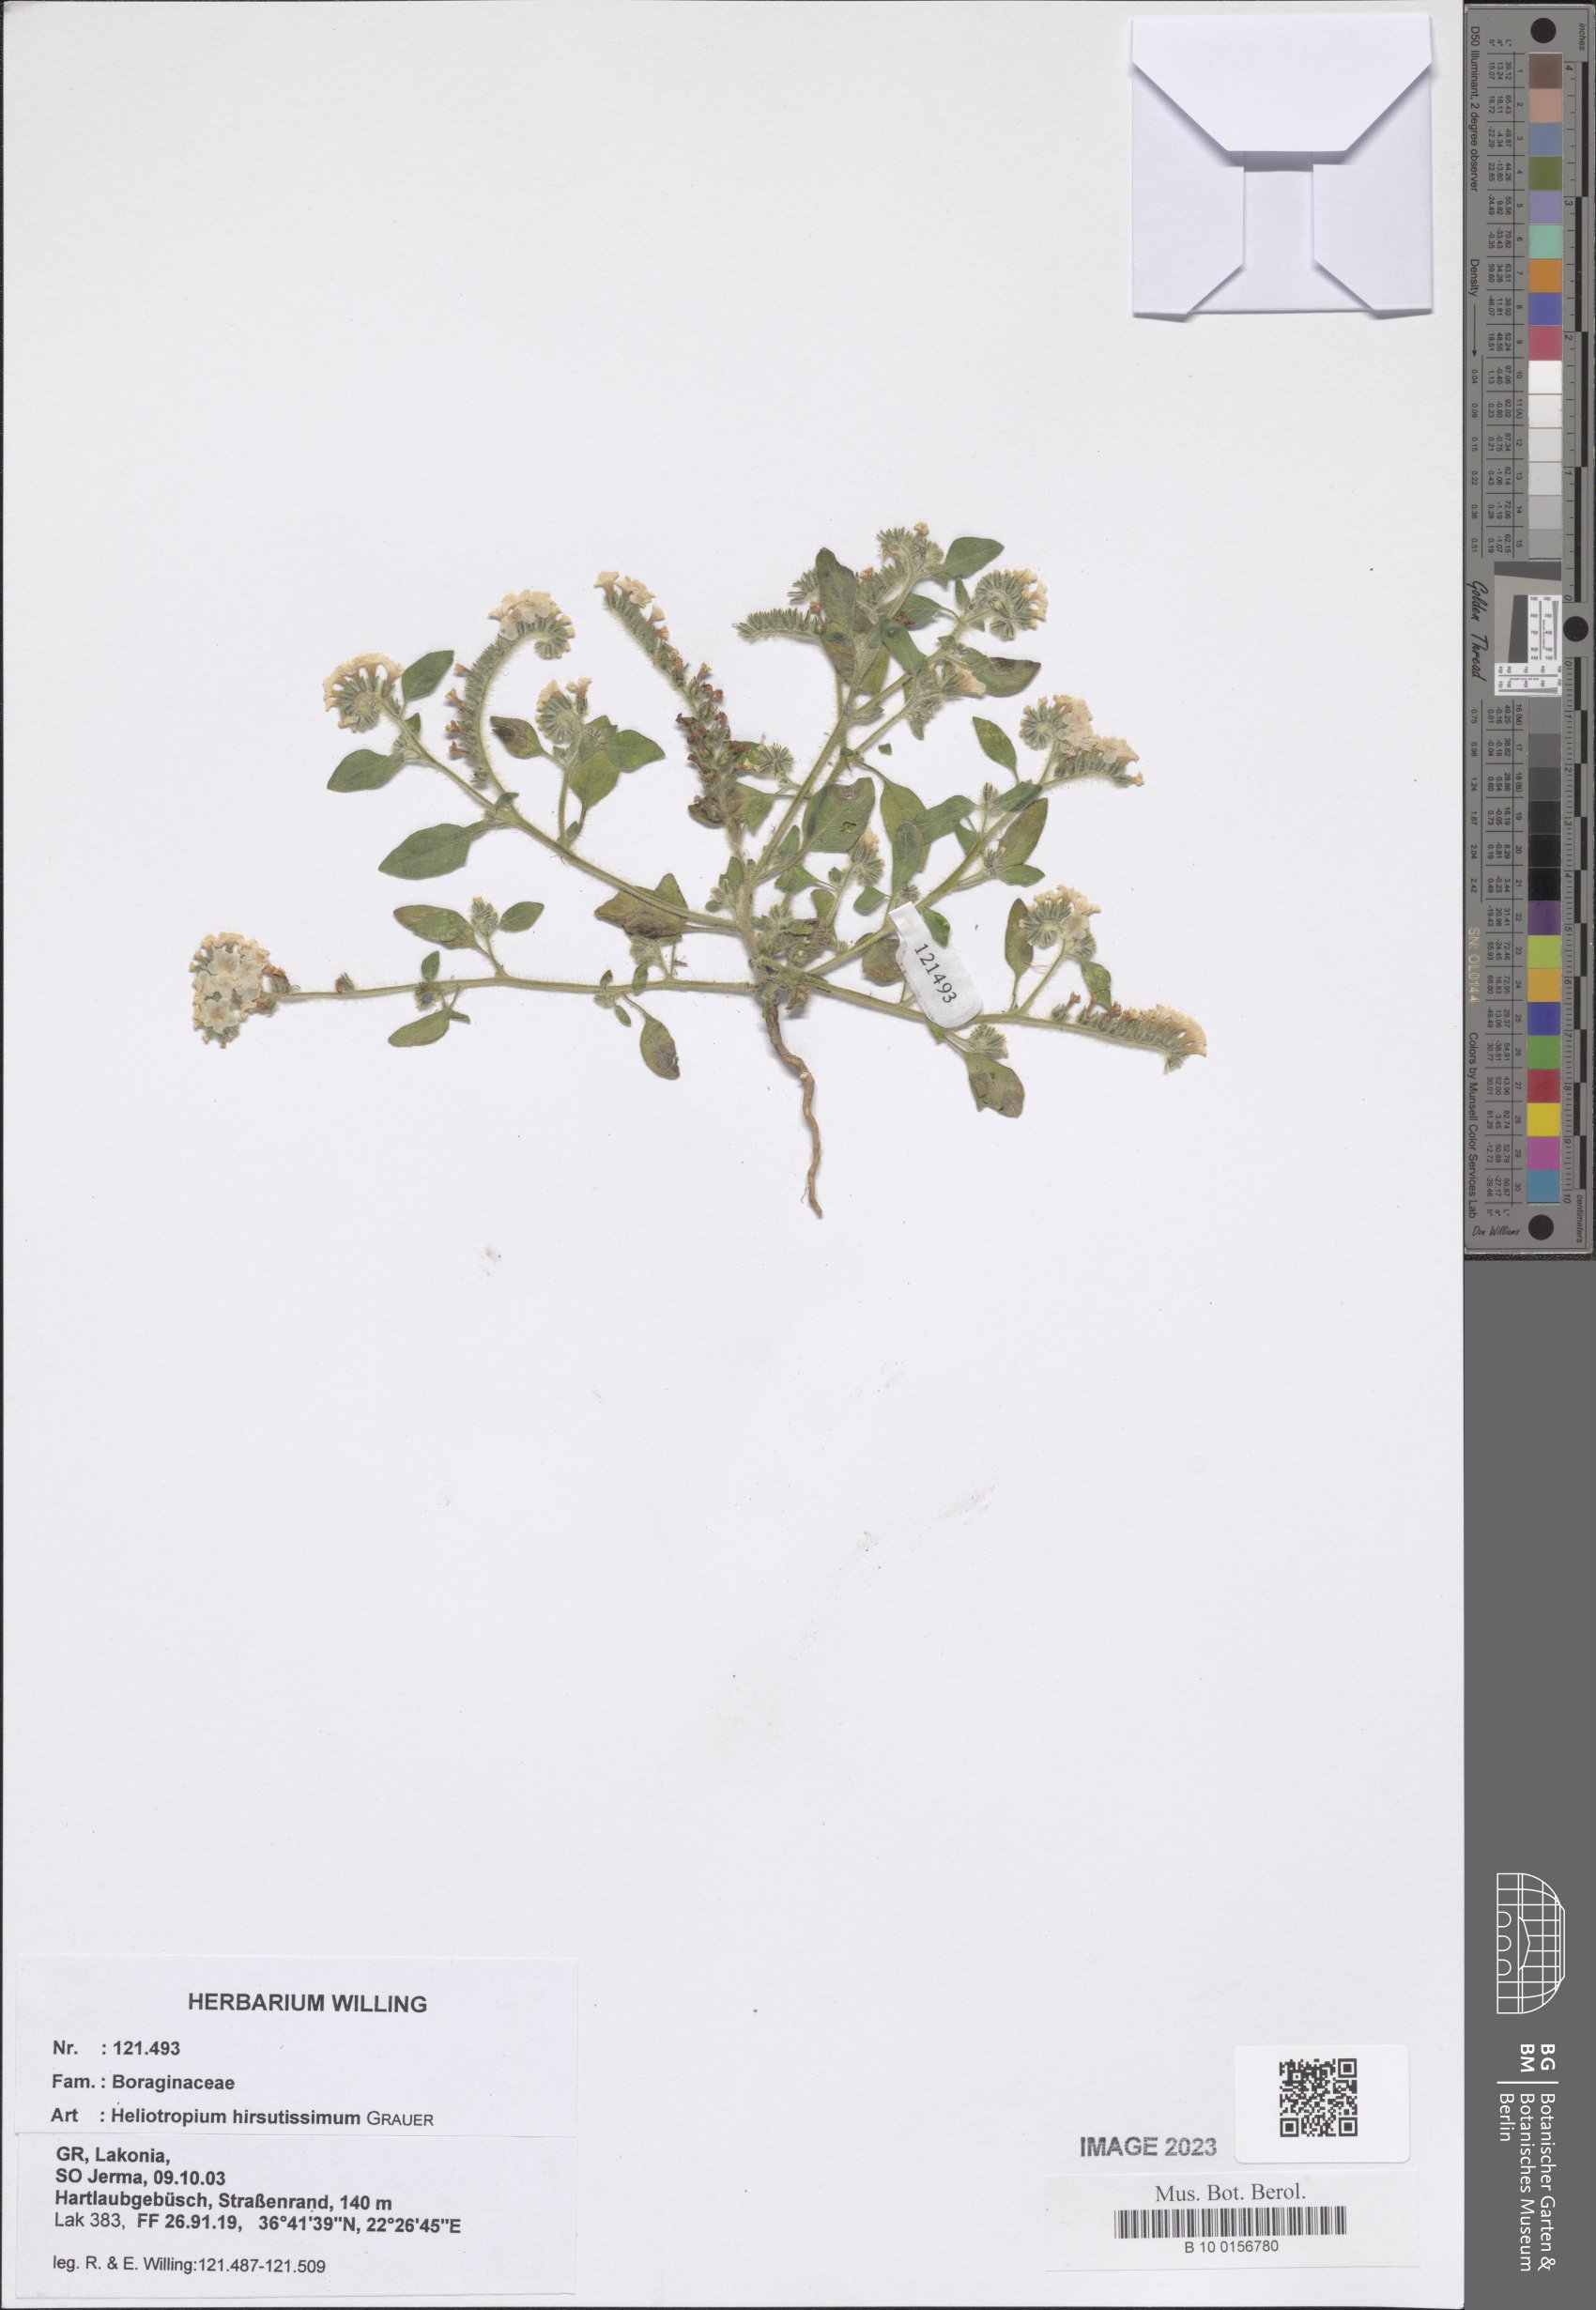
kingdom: Plantae
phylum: Tracheophyta
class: Magnoliopsida
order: Boraginales
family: Heliotropiaceae
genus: Heliotropium
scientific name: Heliotropium hirsutissimum
